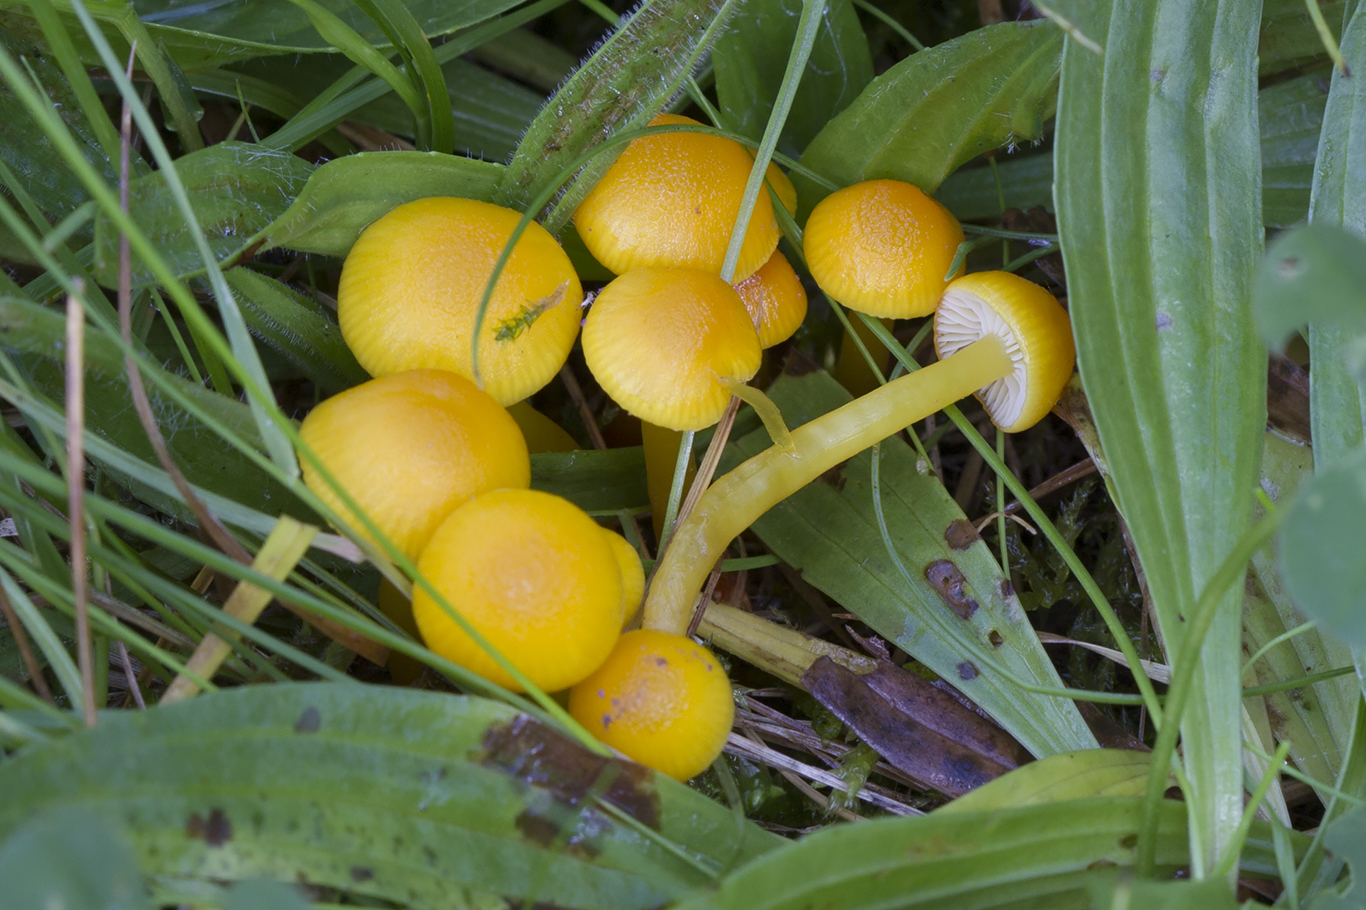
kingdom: Fungi
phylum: Basidiomycota
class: Agaricomycetes
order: Agaricales
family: Hygrophoraceae
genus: Hygrocybe
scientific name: Hygrocybe ceracea
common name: voksgul vokshat
